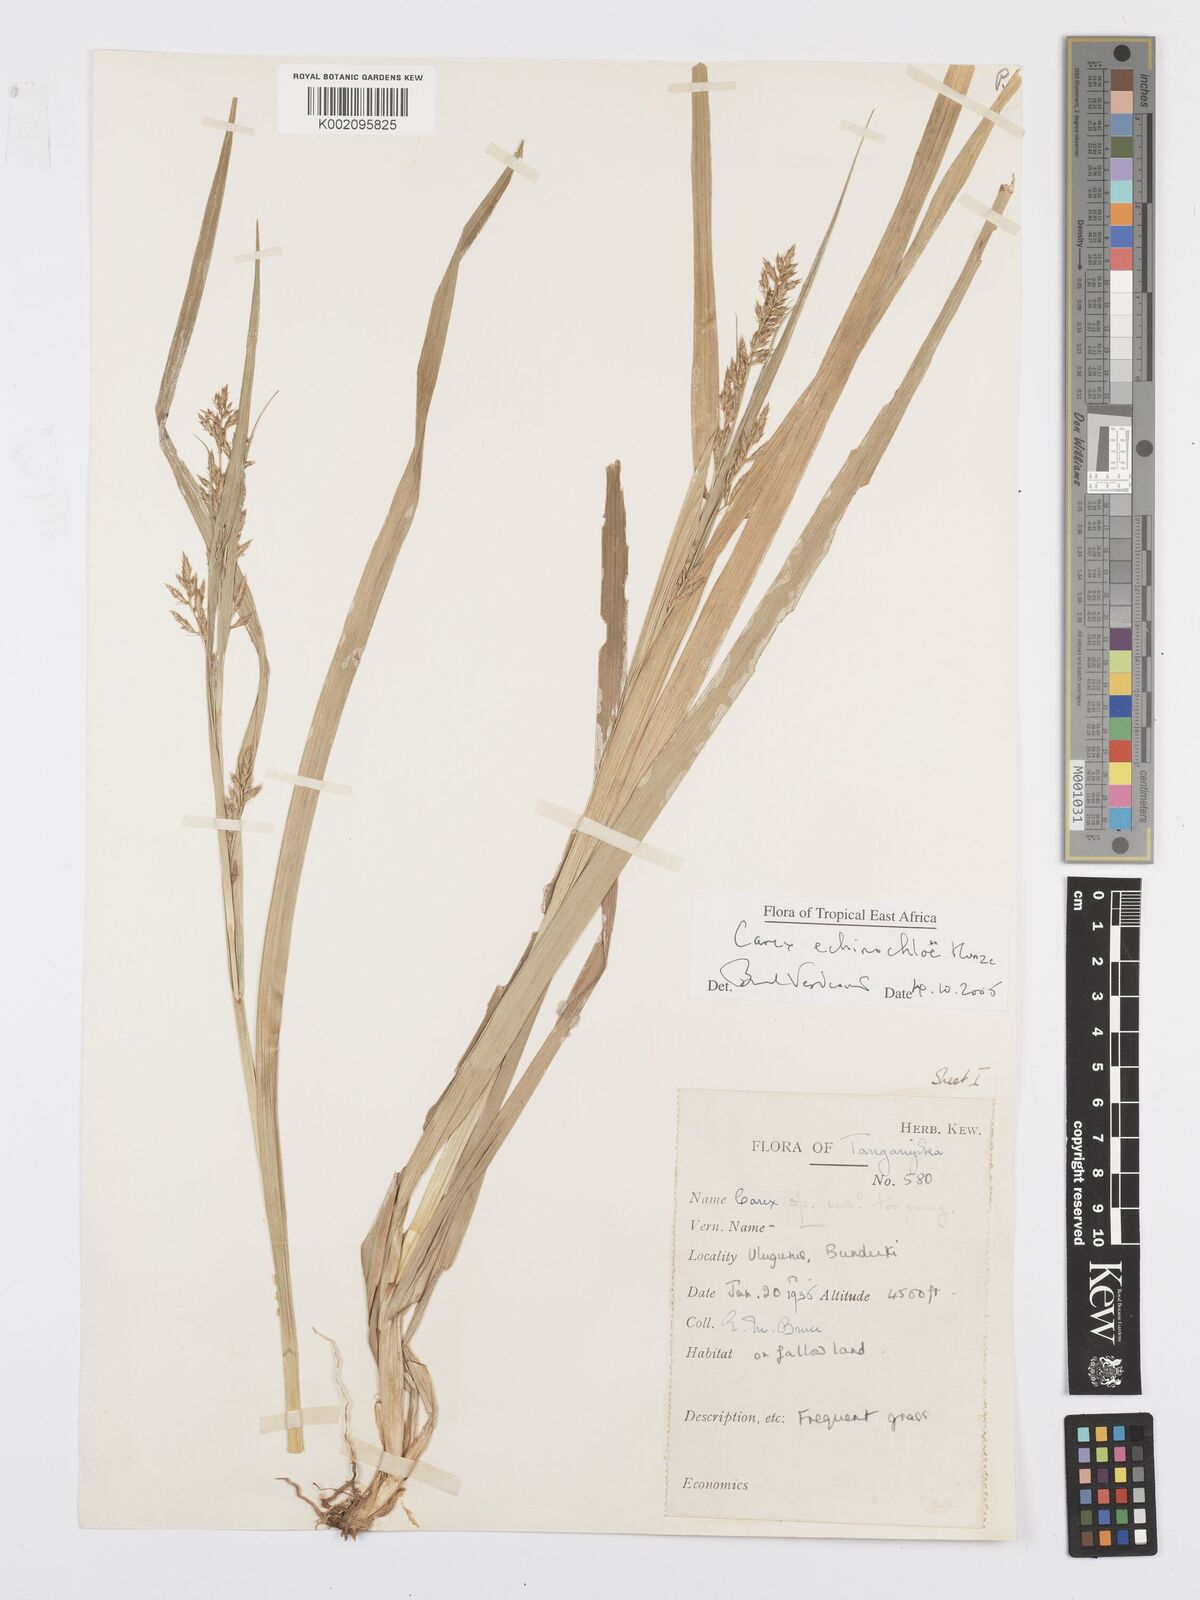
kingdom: Plantae
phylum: Tracheophyta
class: Liliopsida
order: Poales
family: Cyperaceae
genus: Carex
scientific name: Carex echinochloe
